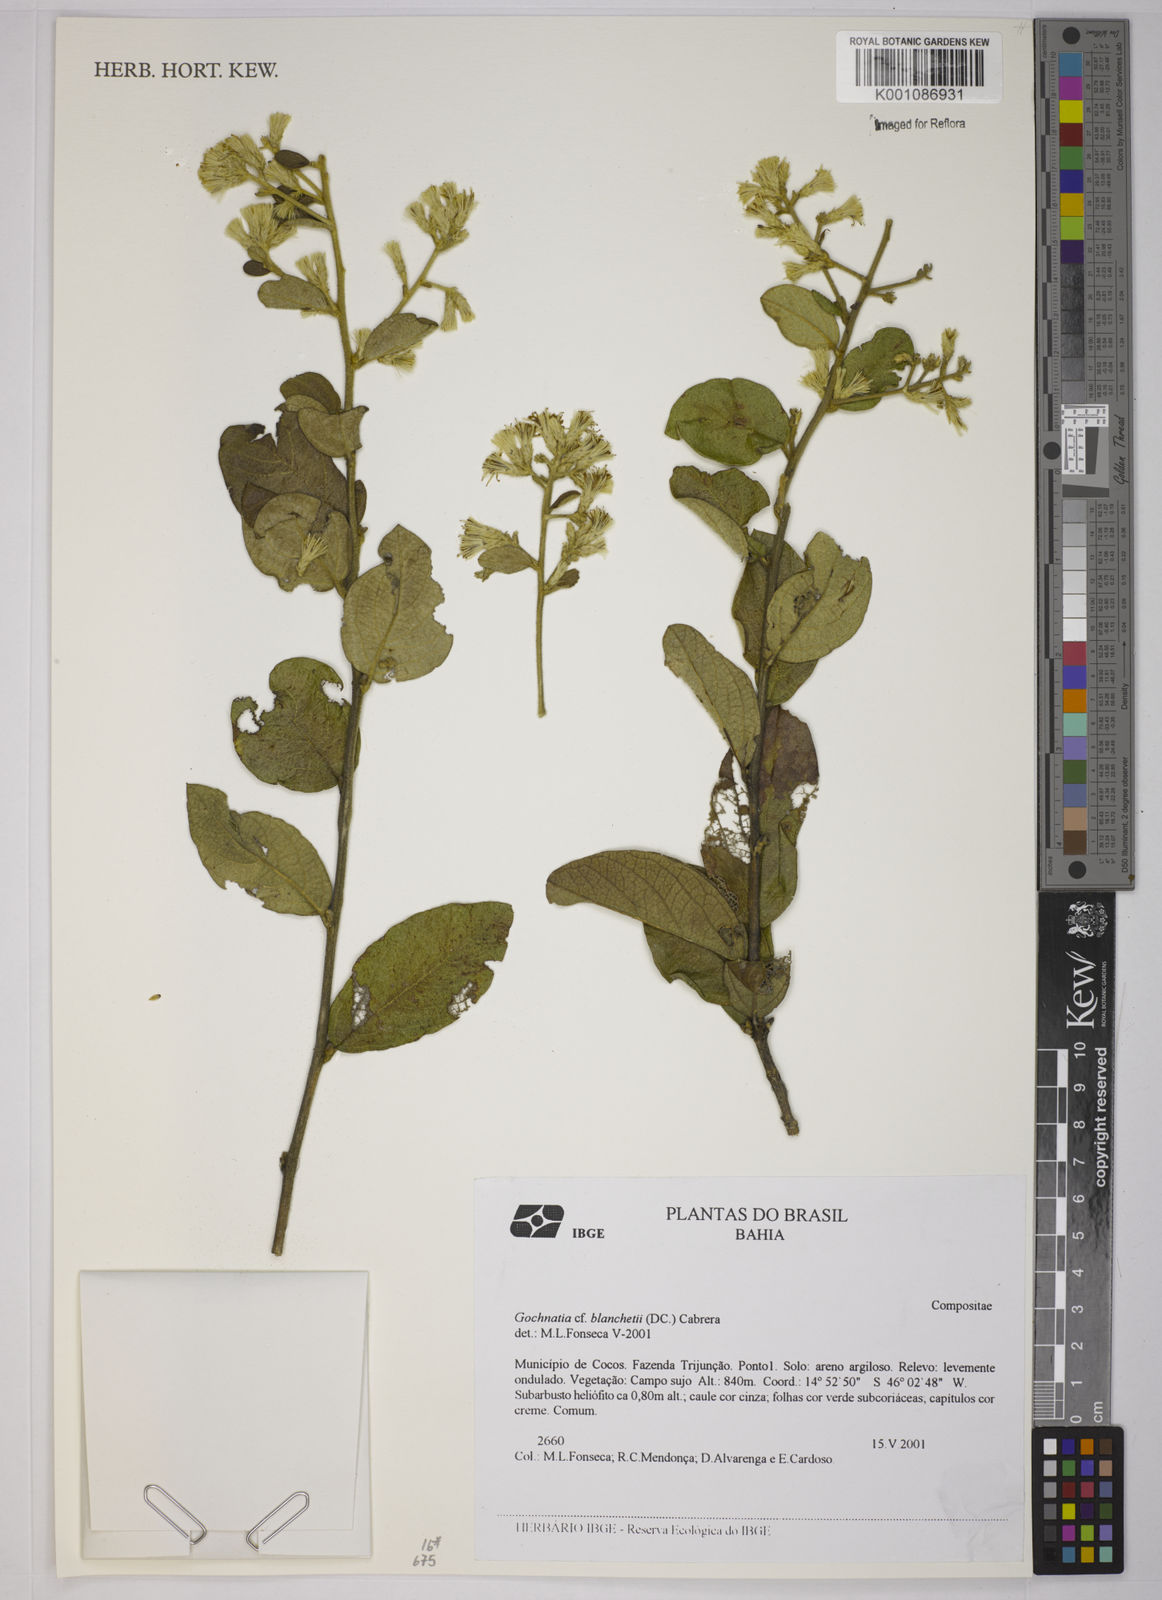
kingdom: Plantae
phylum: Tracheophyta
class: Magnoliopsida
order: Asterales
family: Asteraceae
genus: Moquiniastrum
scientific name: Moquiniastrum blanchetianum
